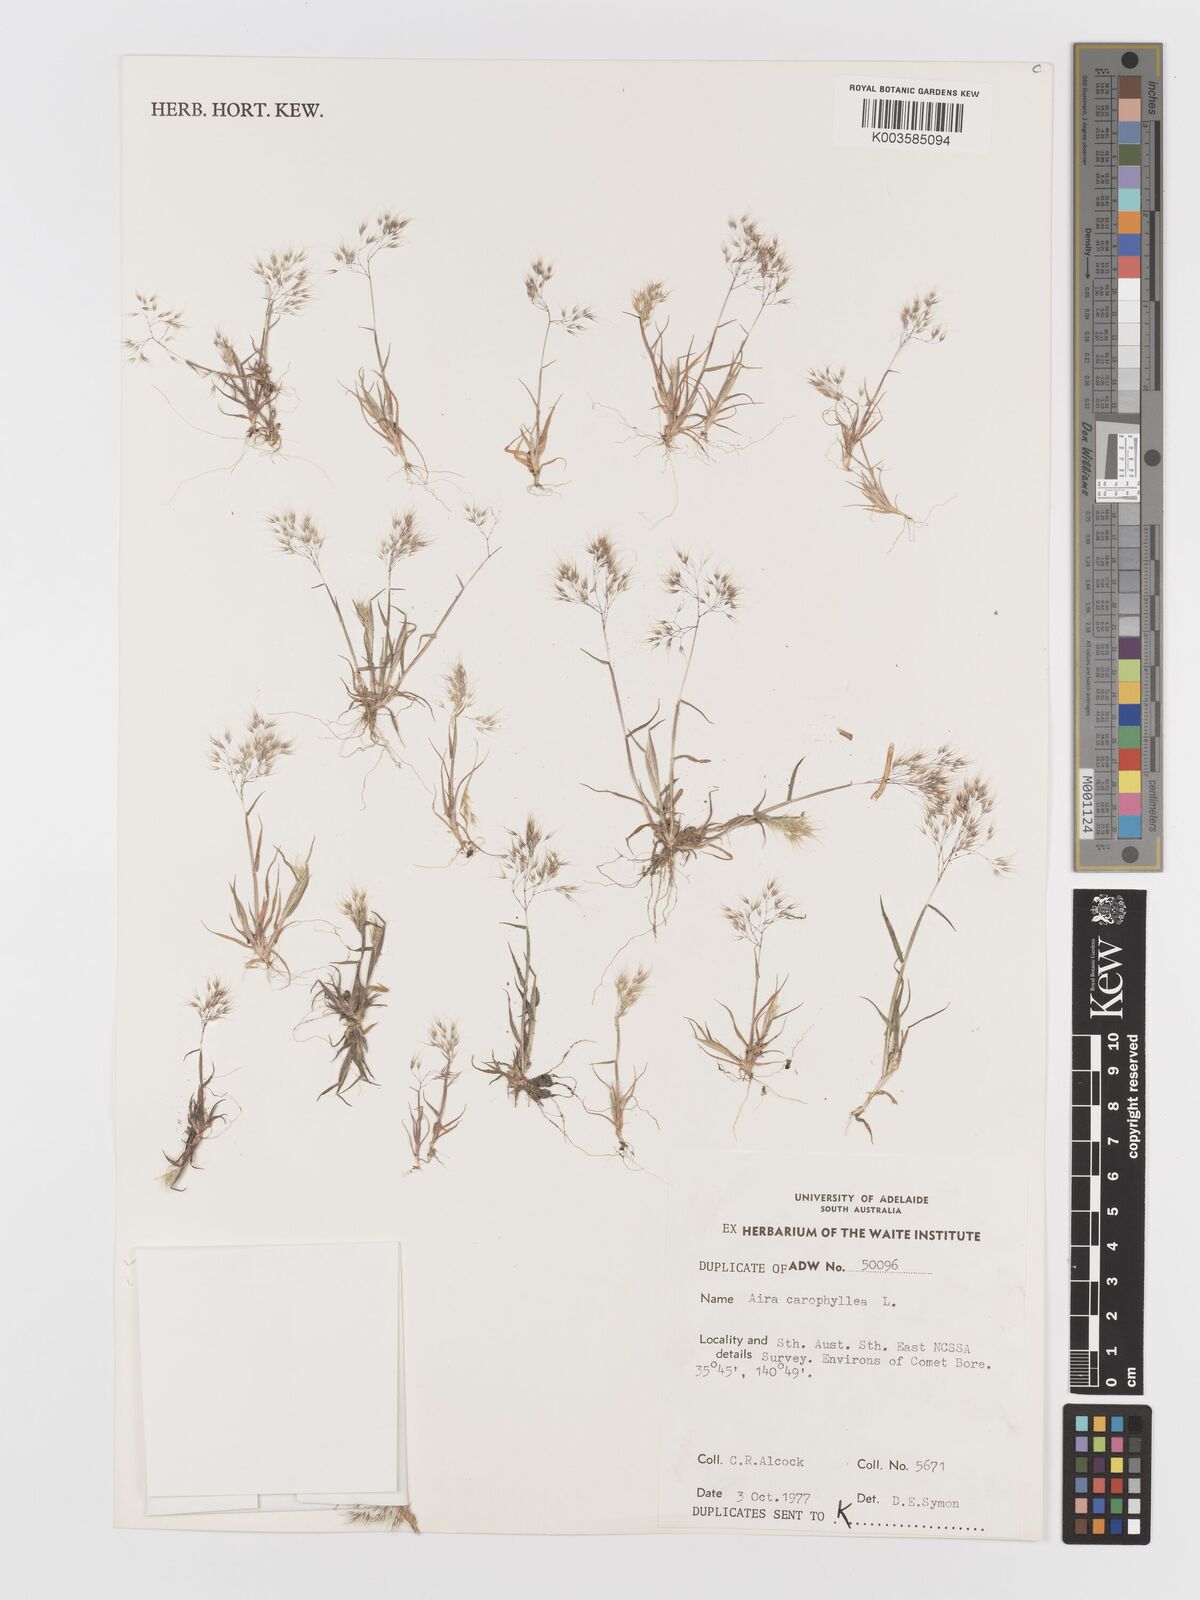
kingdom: Plantae
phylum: Tracheophyta
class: Liliopsida
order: Poales
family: Poaceae
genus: Aira
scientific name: Aira caryophyllea
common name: Silver hairgrass
